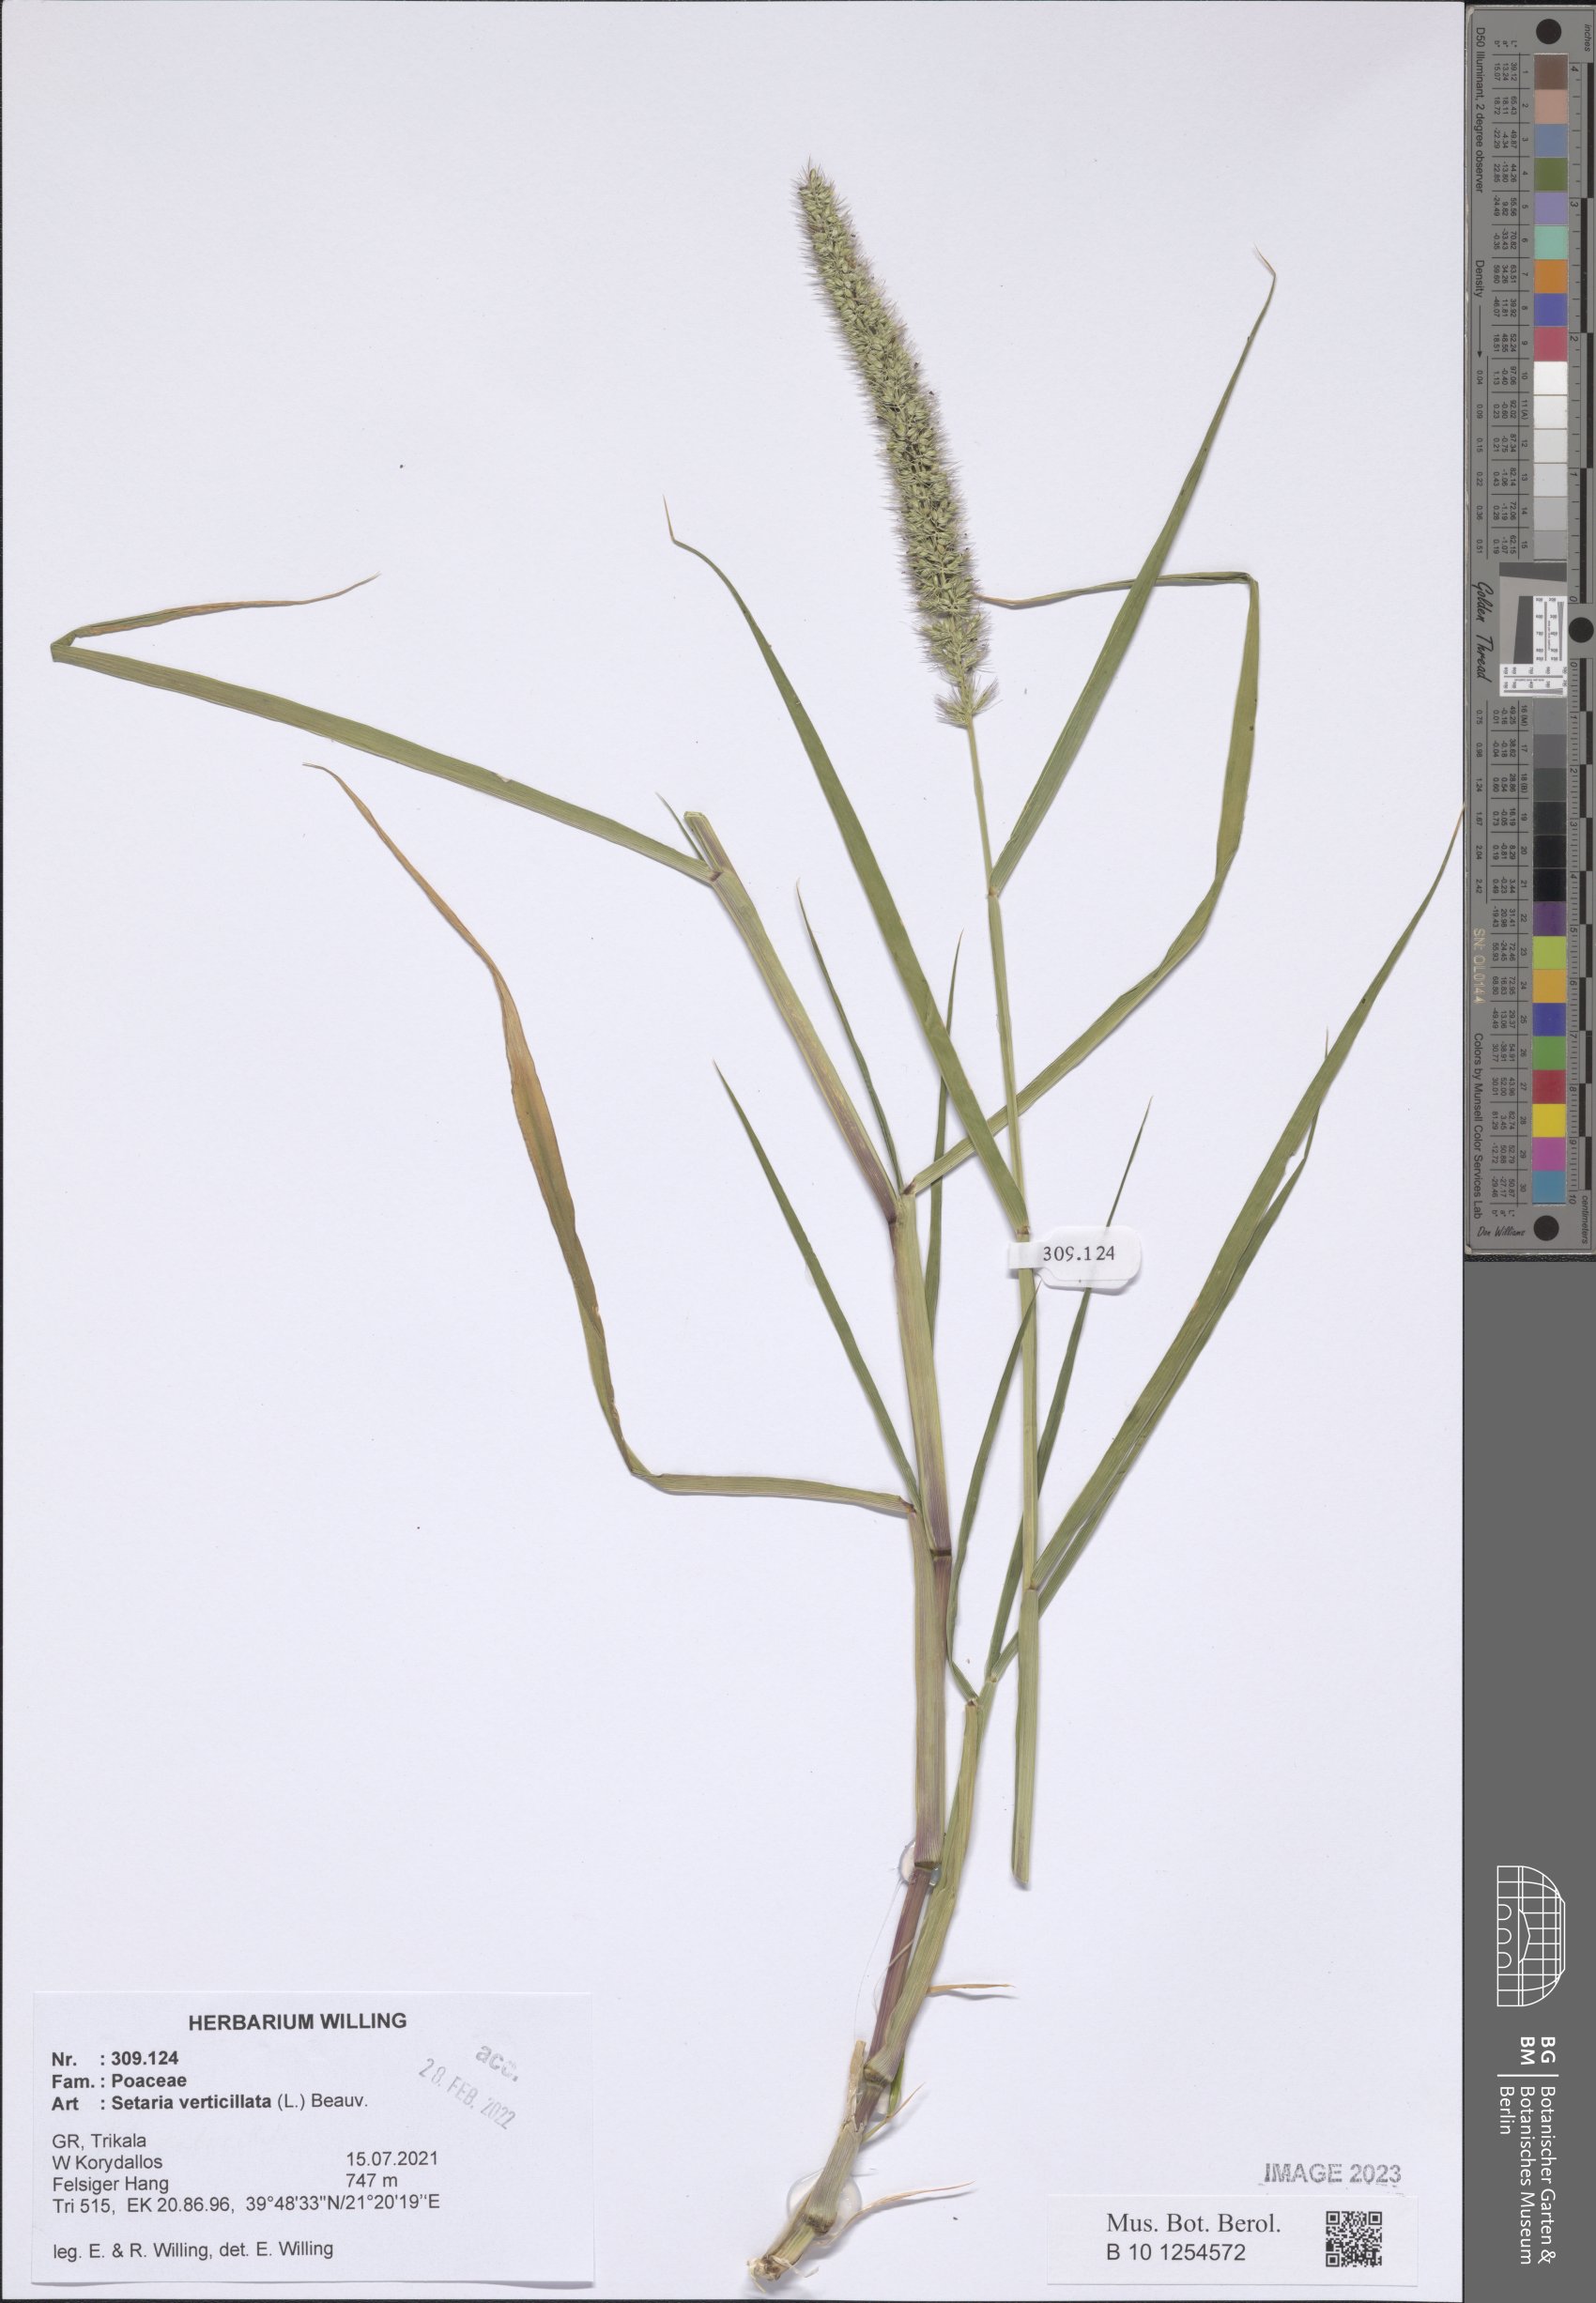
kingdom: Plantae
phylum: Tracheophyta
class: Liliopsida
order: Poales
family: Poaceae
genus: Setaria
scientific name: Setaria verticillata
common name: Hooked bristlegrass
